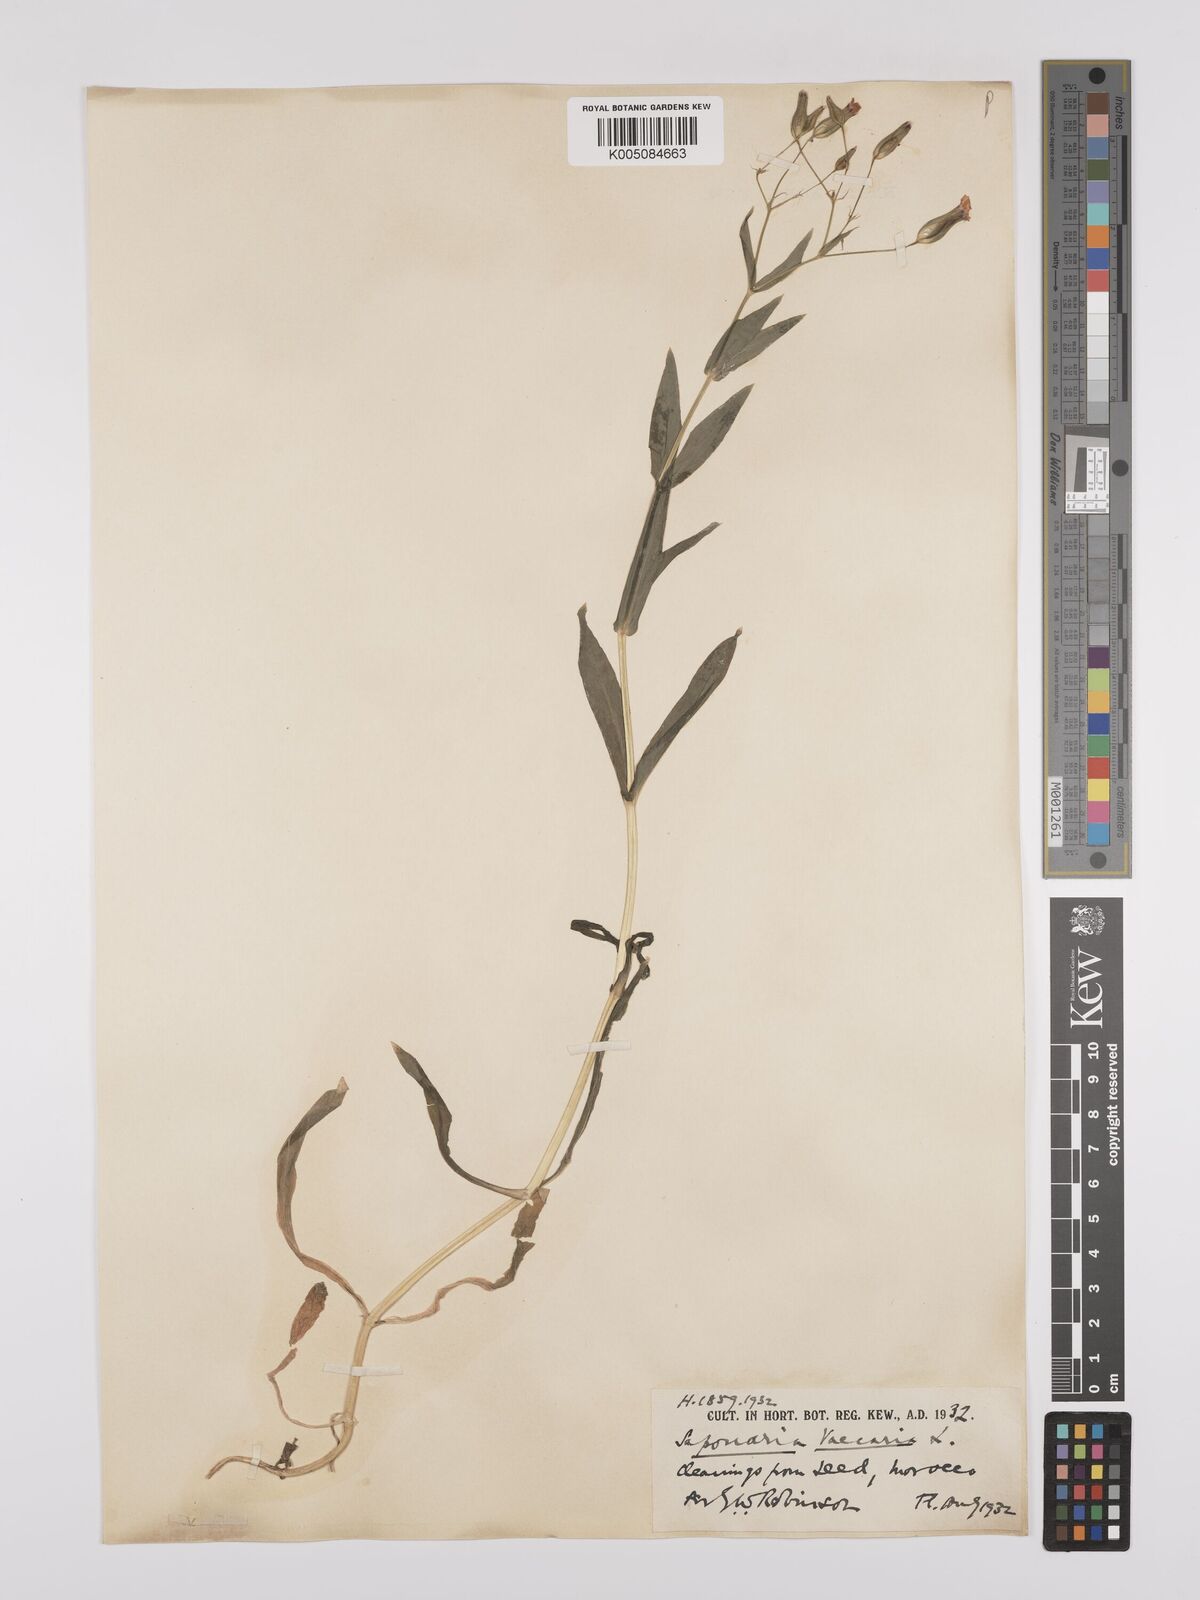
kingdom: Plantae
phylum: Tracheophyta
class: Magnoliopsida
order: Caryophyllales
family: Caryophyllaceae
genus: Gypsophila
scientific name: Gypsophila vaccaria
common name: Cow soapwort
